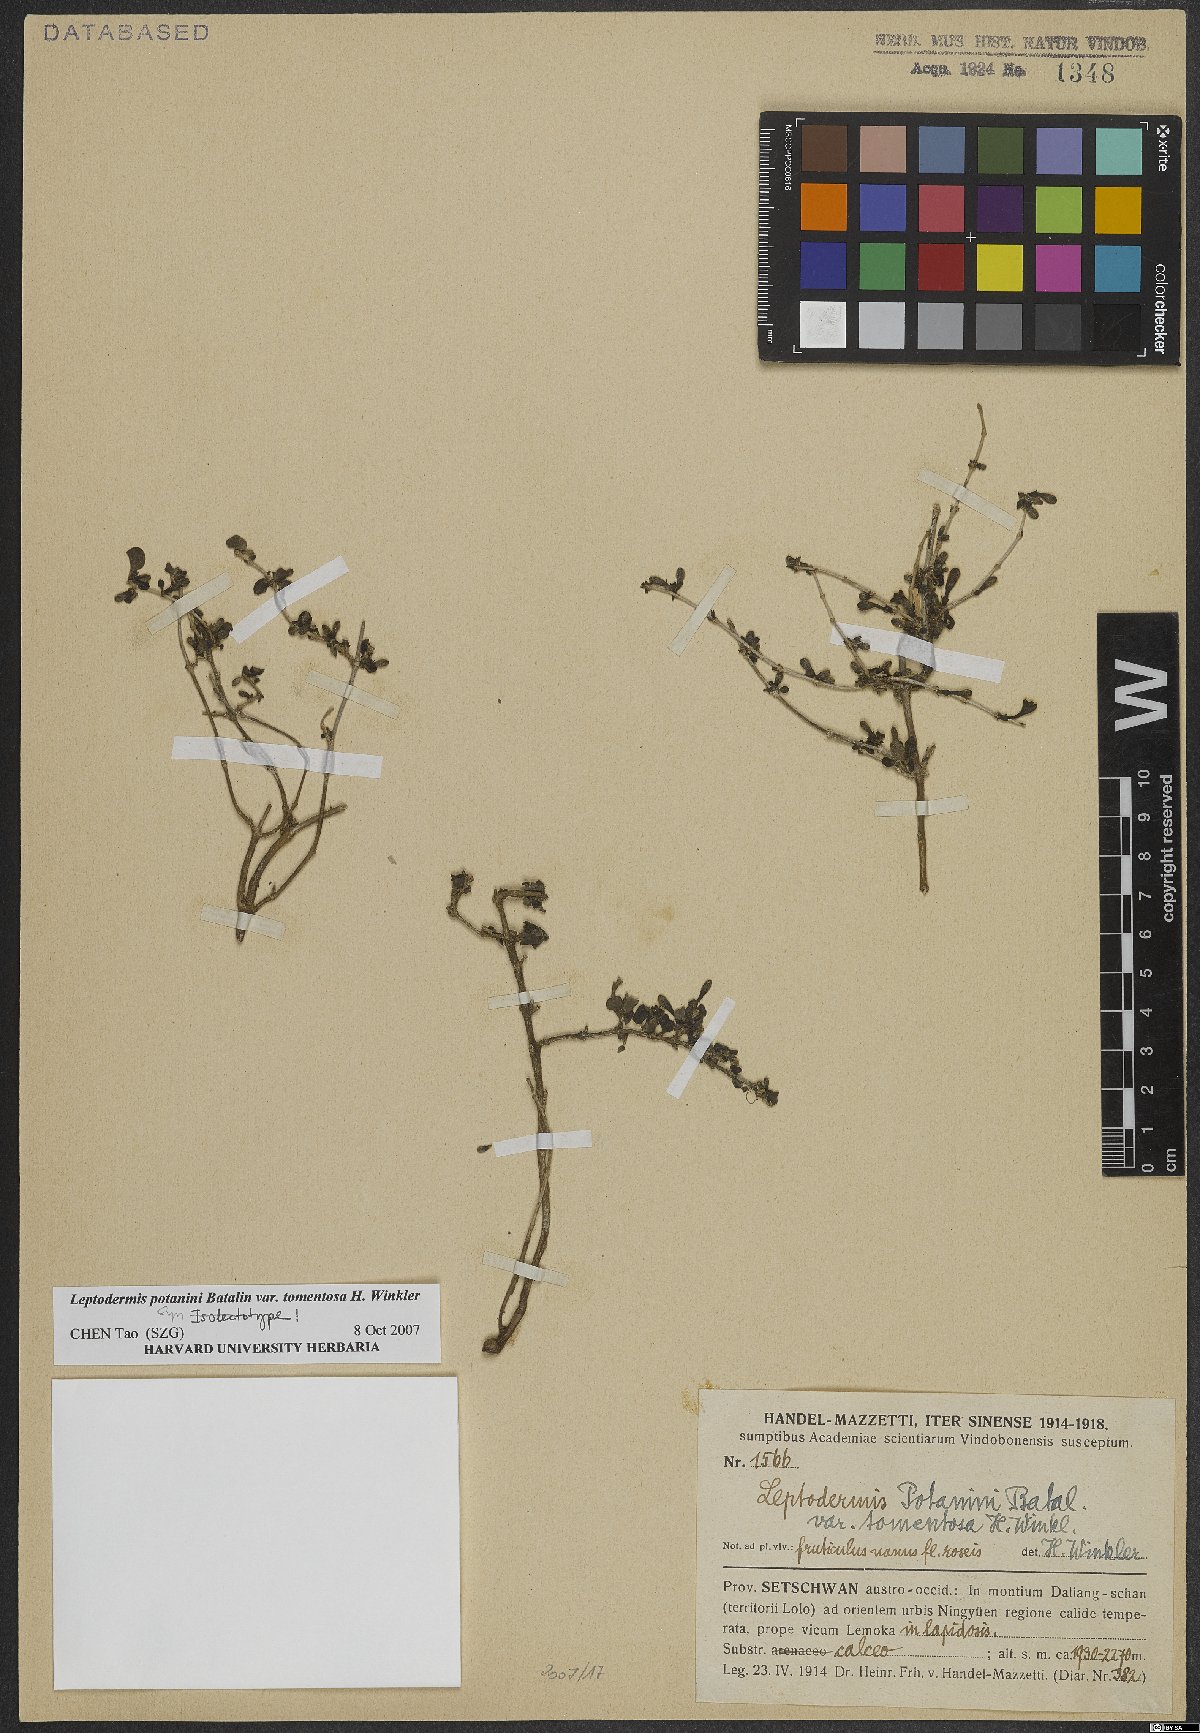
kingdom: Plantae
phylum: Tracheophyta
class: Magnoliopsida
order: Gentianales
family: Rubiaceae
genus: Leptodermis
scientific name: Leptodermis potaninii
